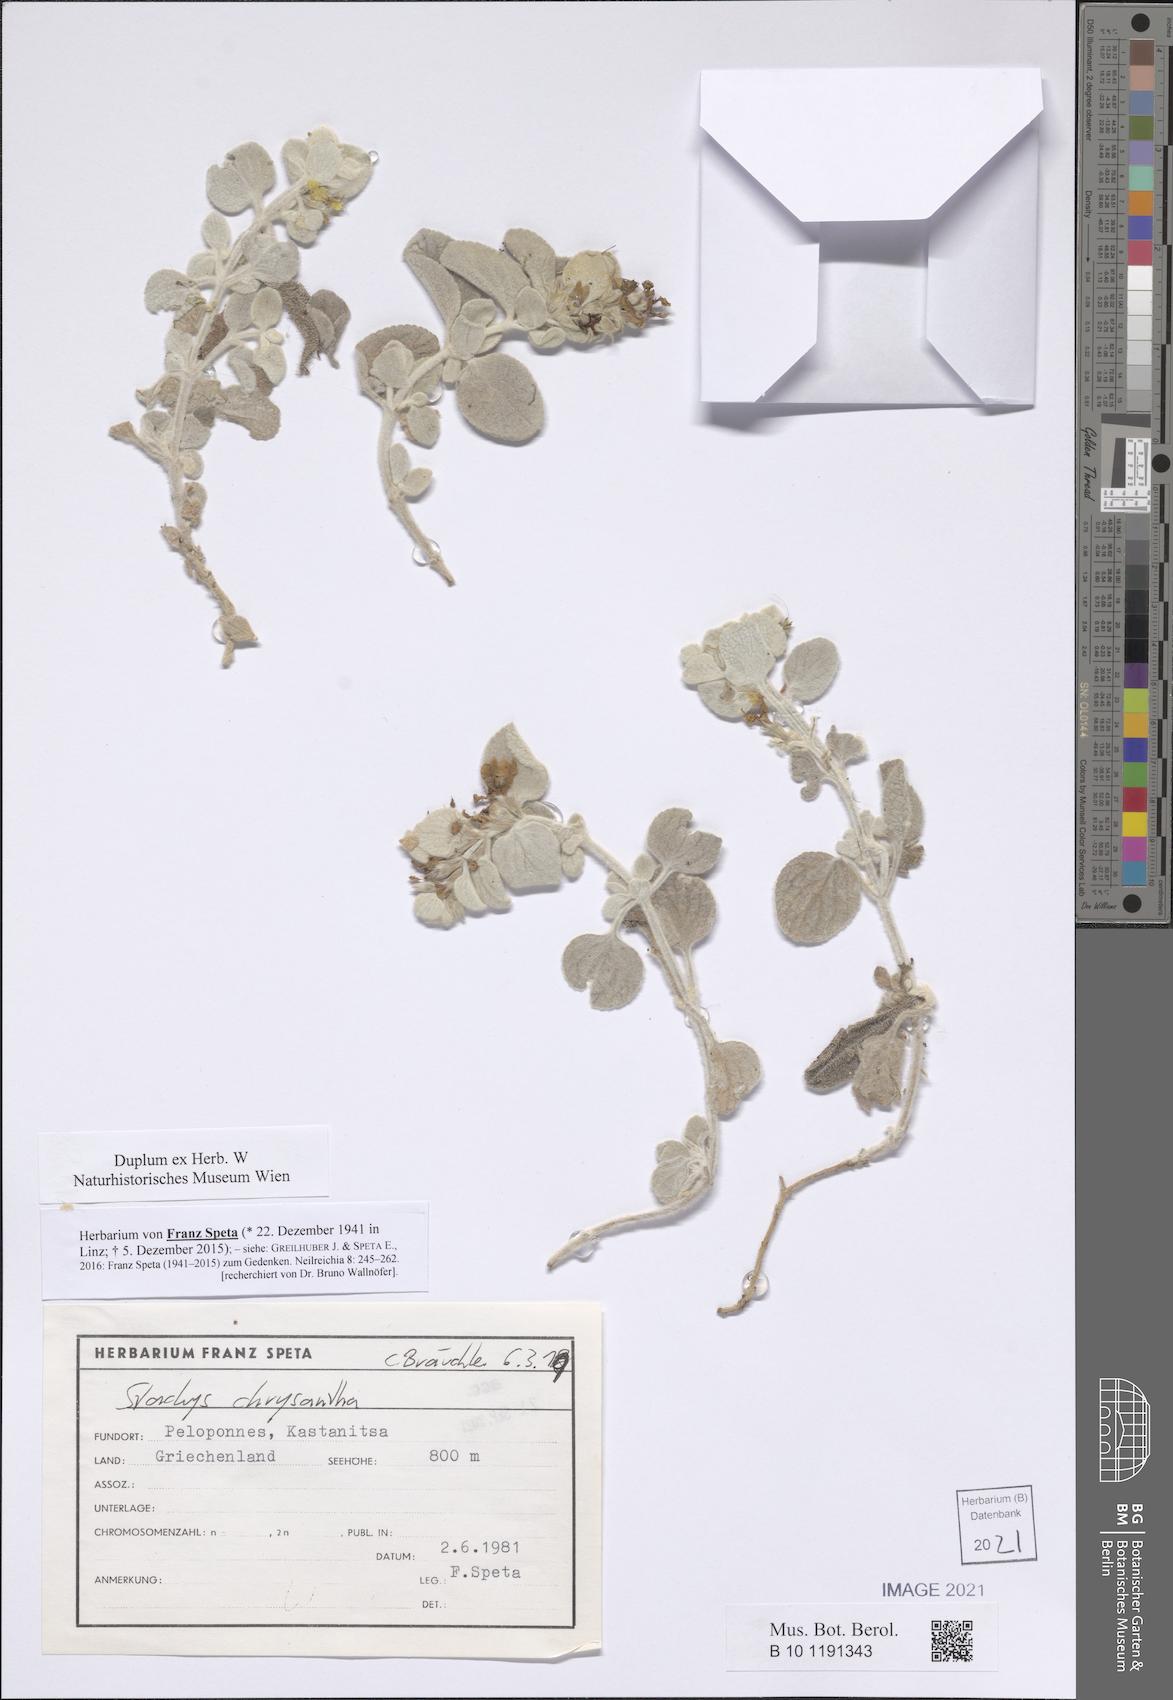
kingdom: Plantae
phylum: Tracheophyta
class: Magnoliopsida
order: Lamiales
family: Lamiaceae
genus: Stachys
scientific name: Stachys chrysantha
